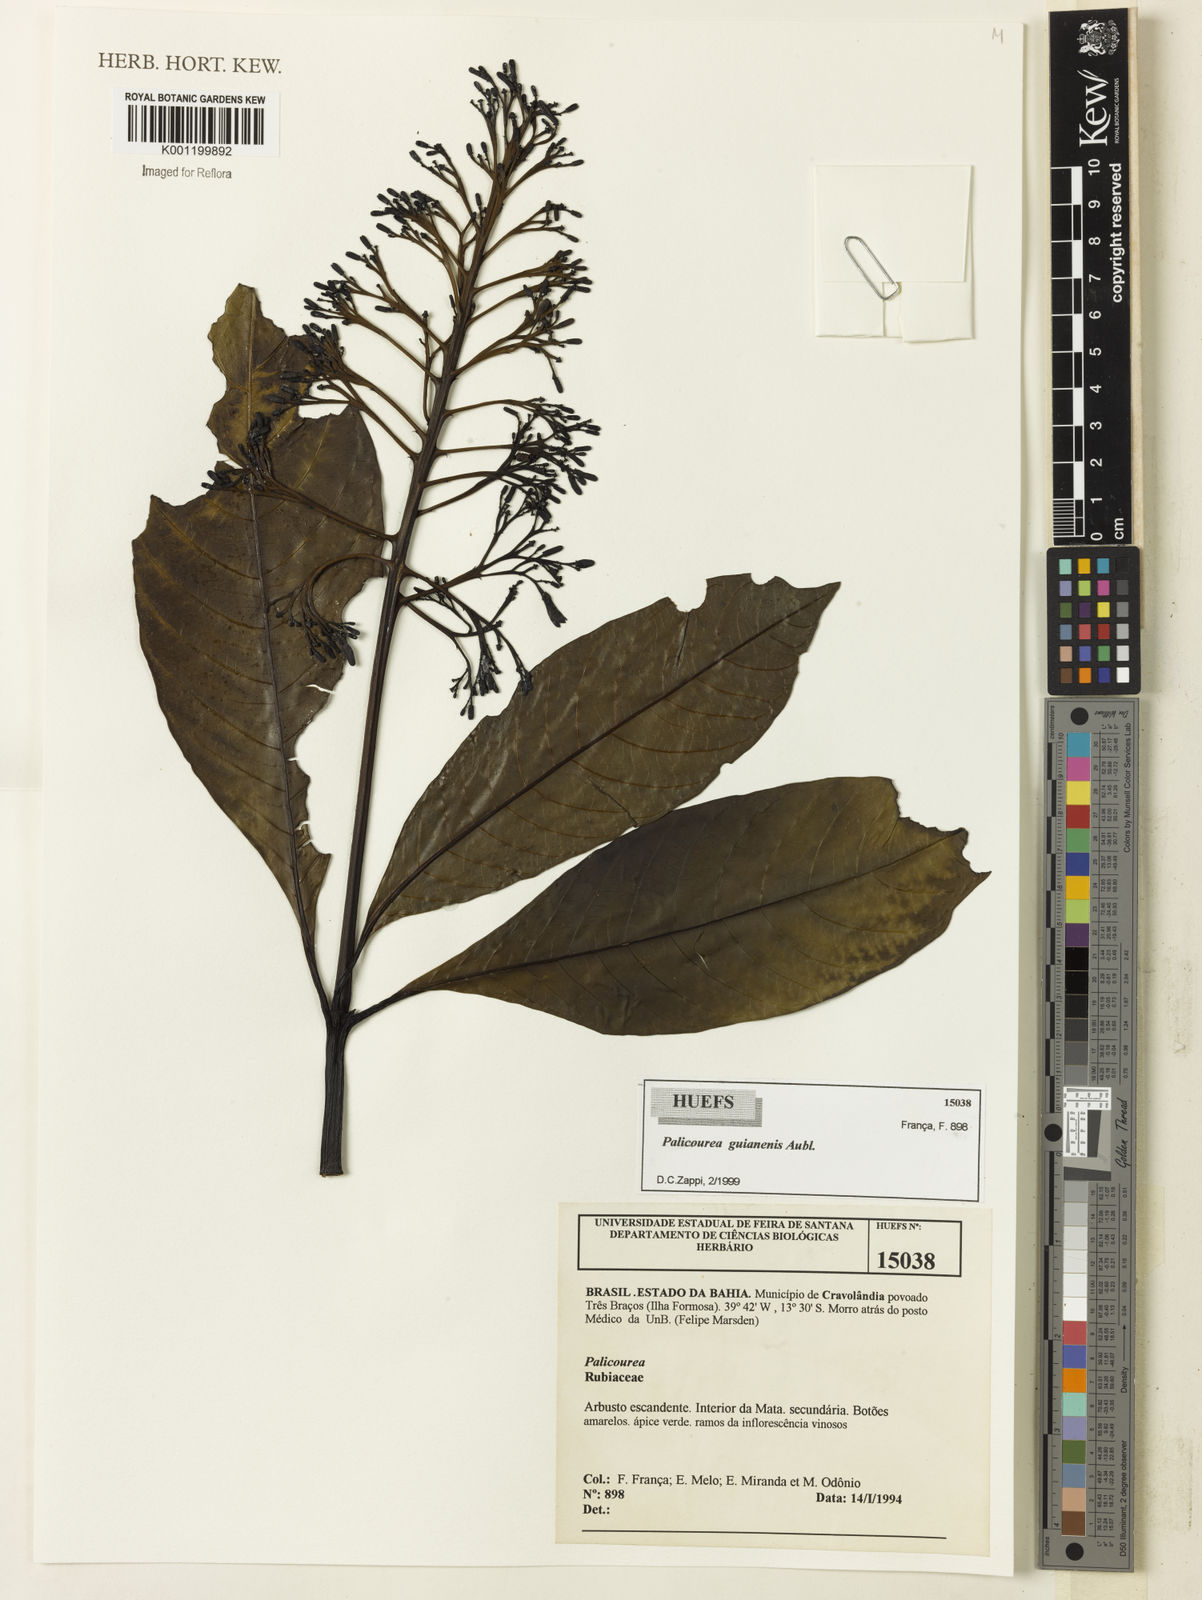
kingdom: Plantae
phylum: Tracheophyta
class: Magnoliopsida
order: Gentianales
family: Rubiaceae
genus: Palicourea
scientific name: Palicourea guianensis
